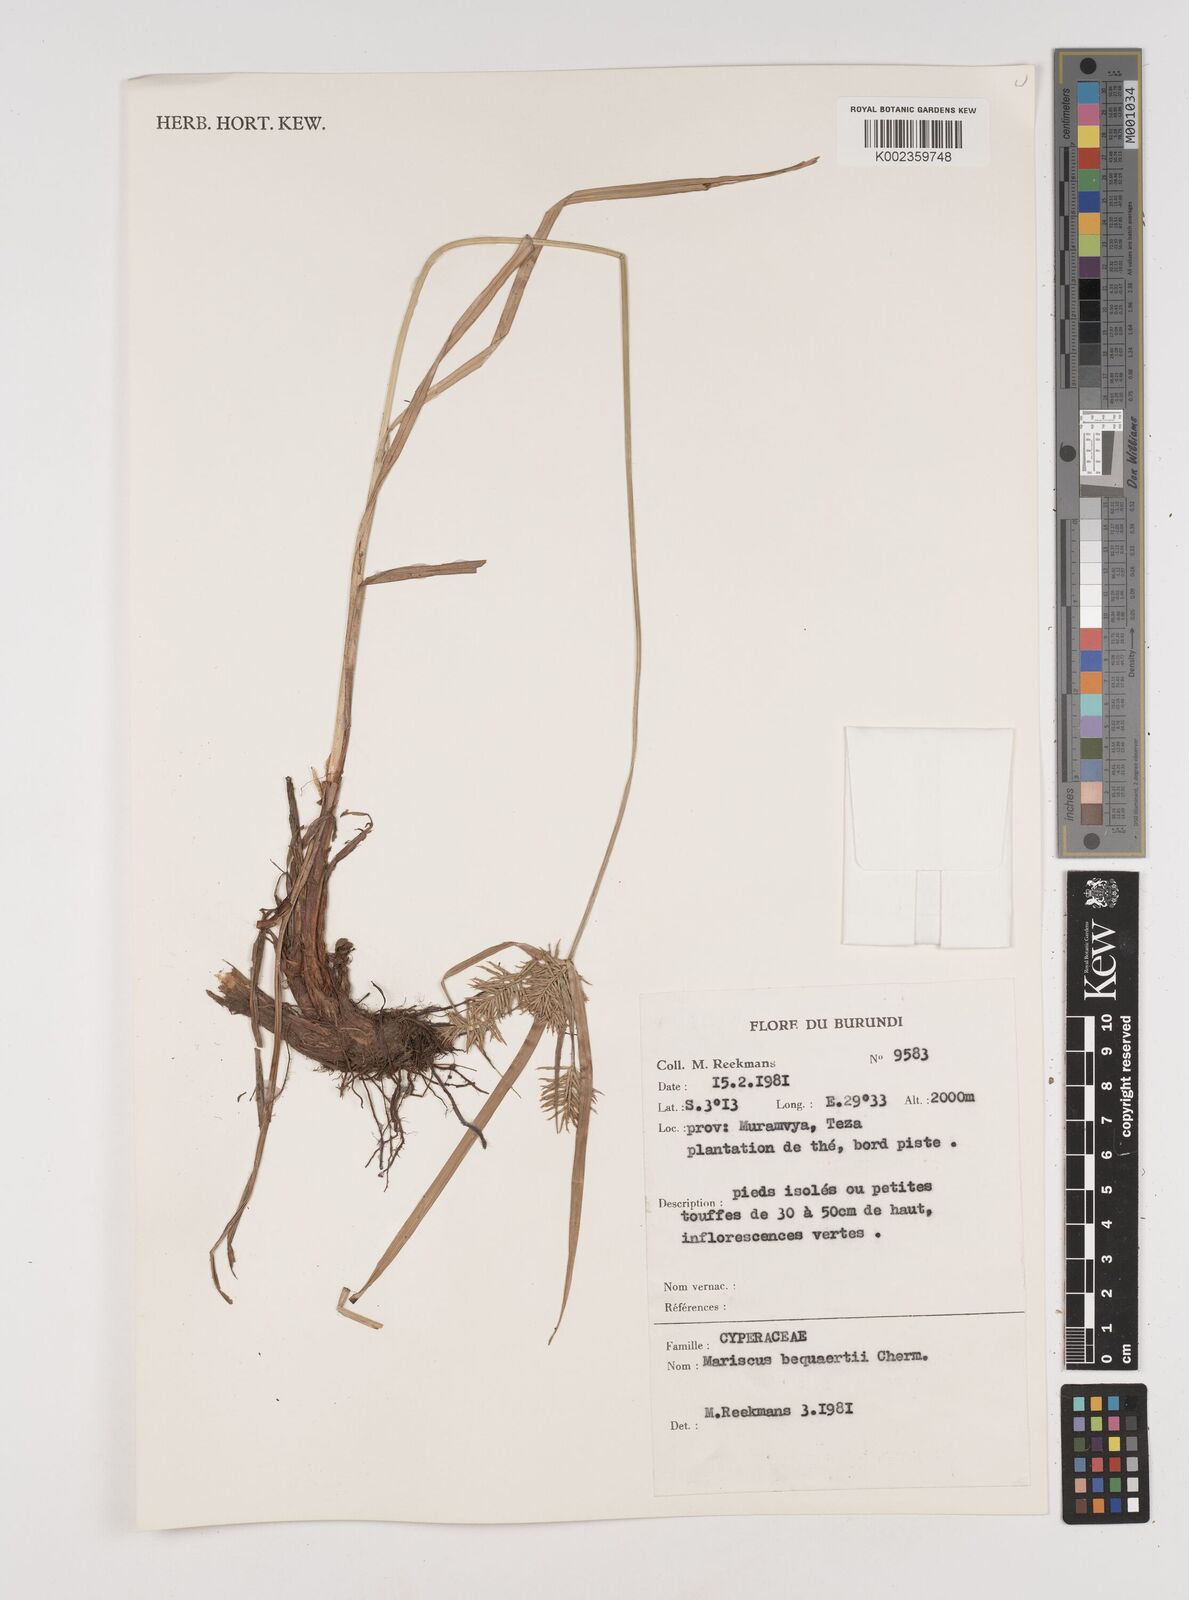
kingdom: Plantae
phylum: Tracheophyta
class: Liliopsida
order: Poales
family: Cyperaceae
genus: Cyperus
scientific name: Cyperus ferrugineoviridis
